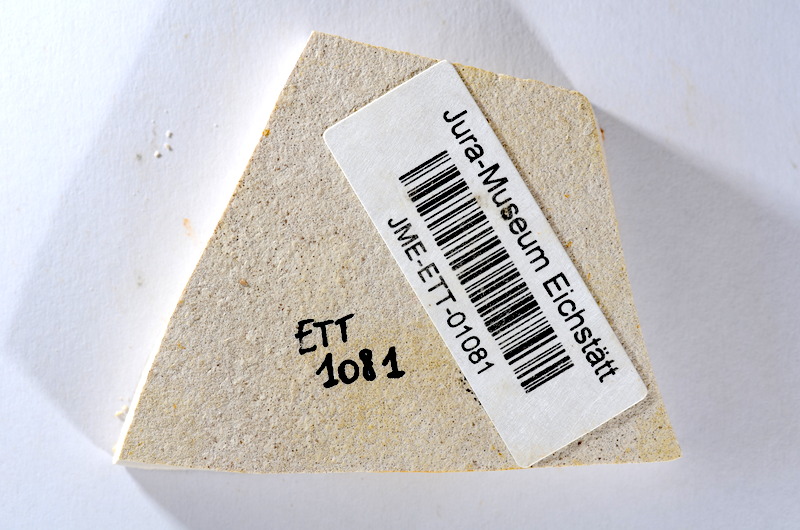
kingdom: Animalia
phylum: Chordata
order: Salmoniformes
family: Orthogonikleithridae
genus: Orthogonikleithrus
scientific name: Orthogonikleithrus hoelli
